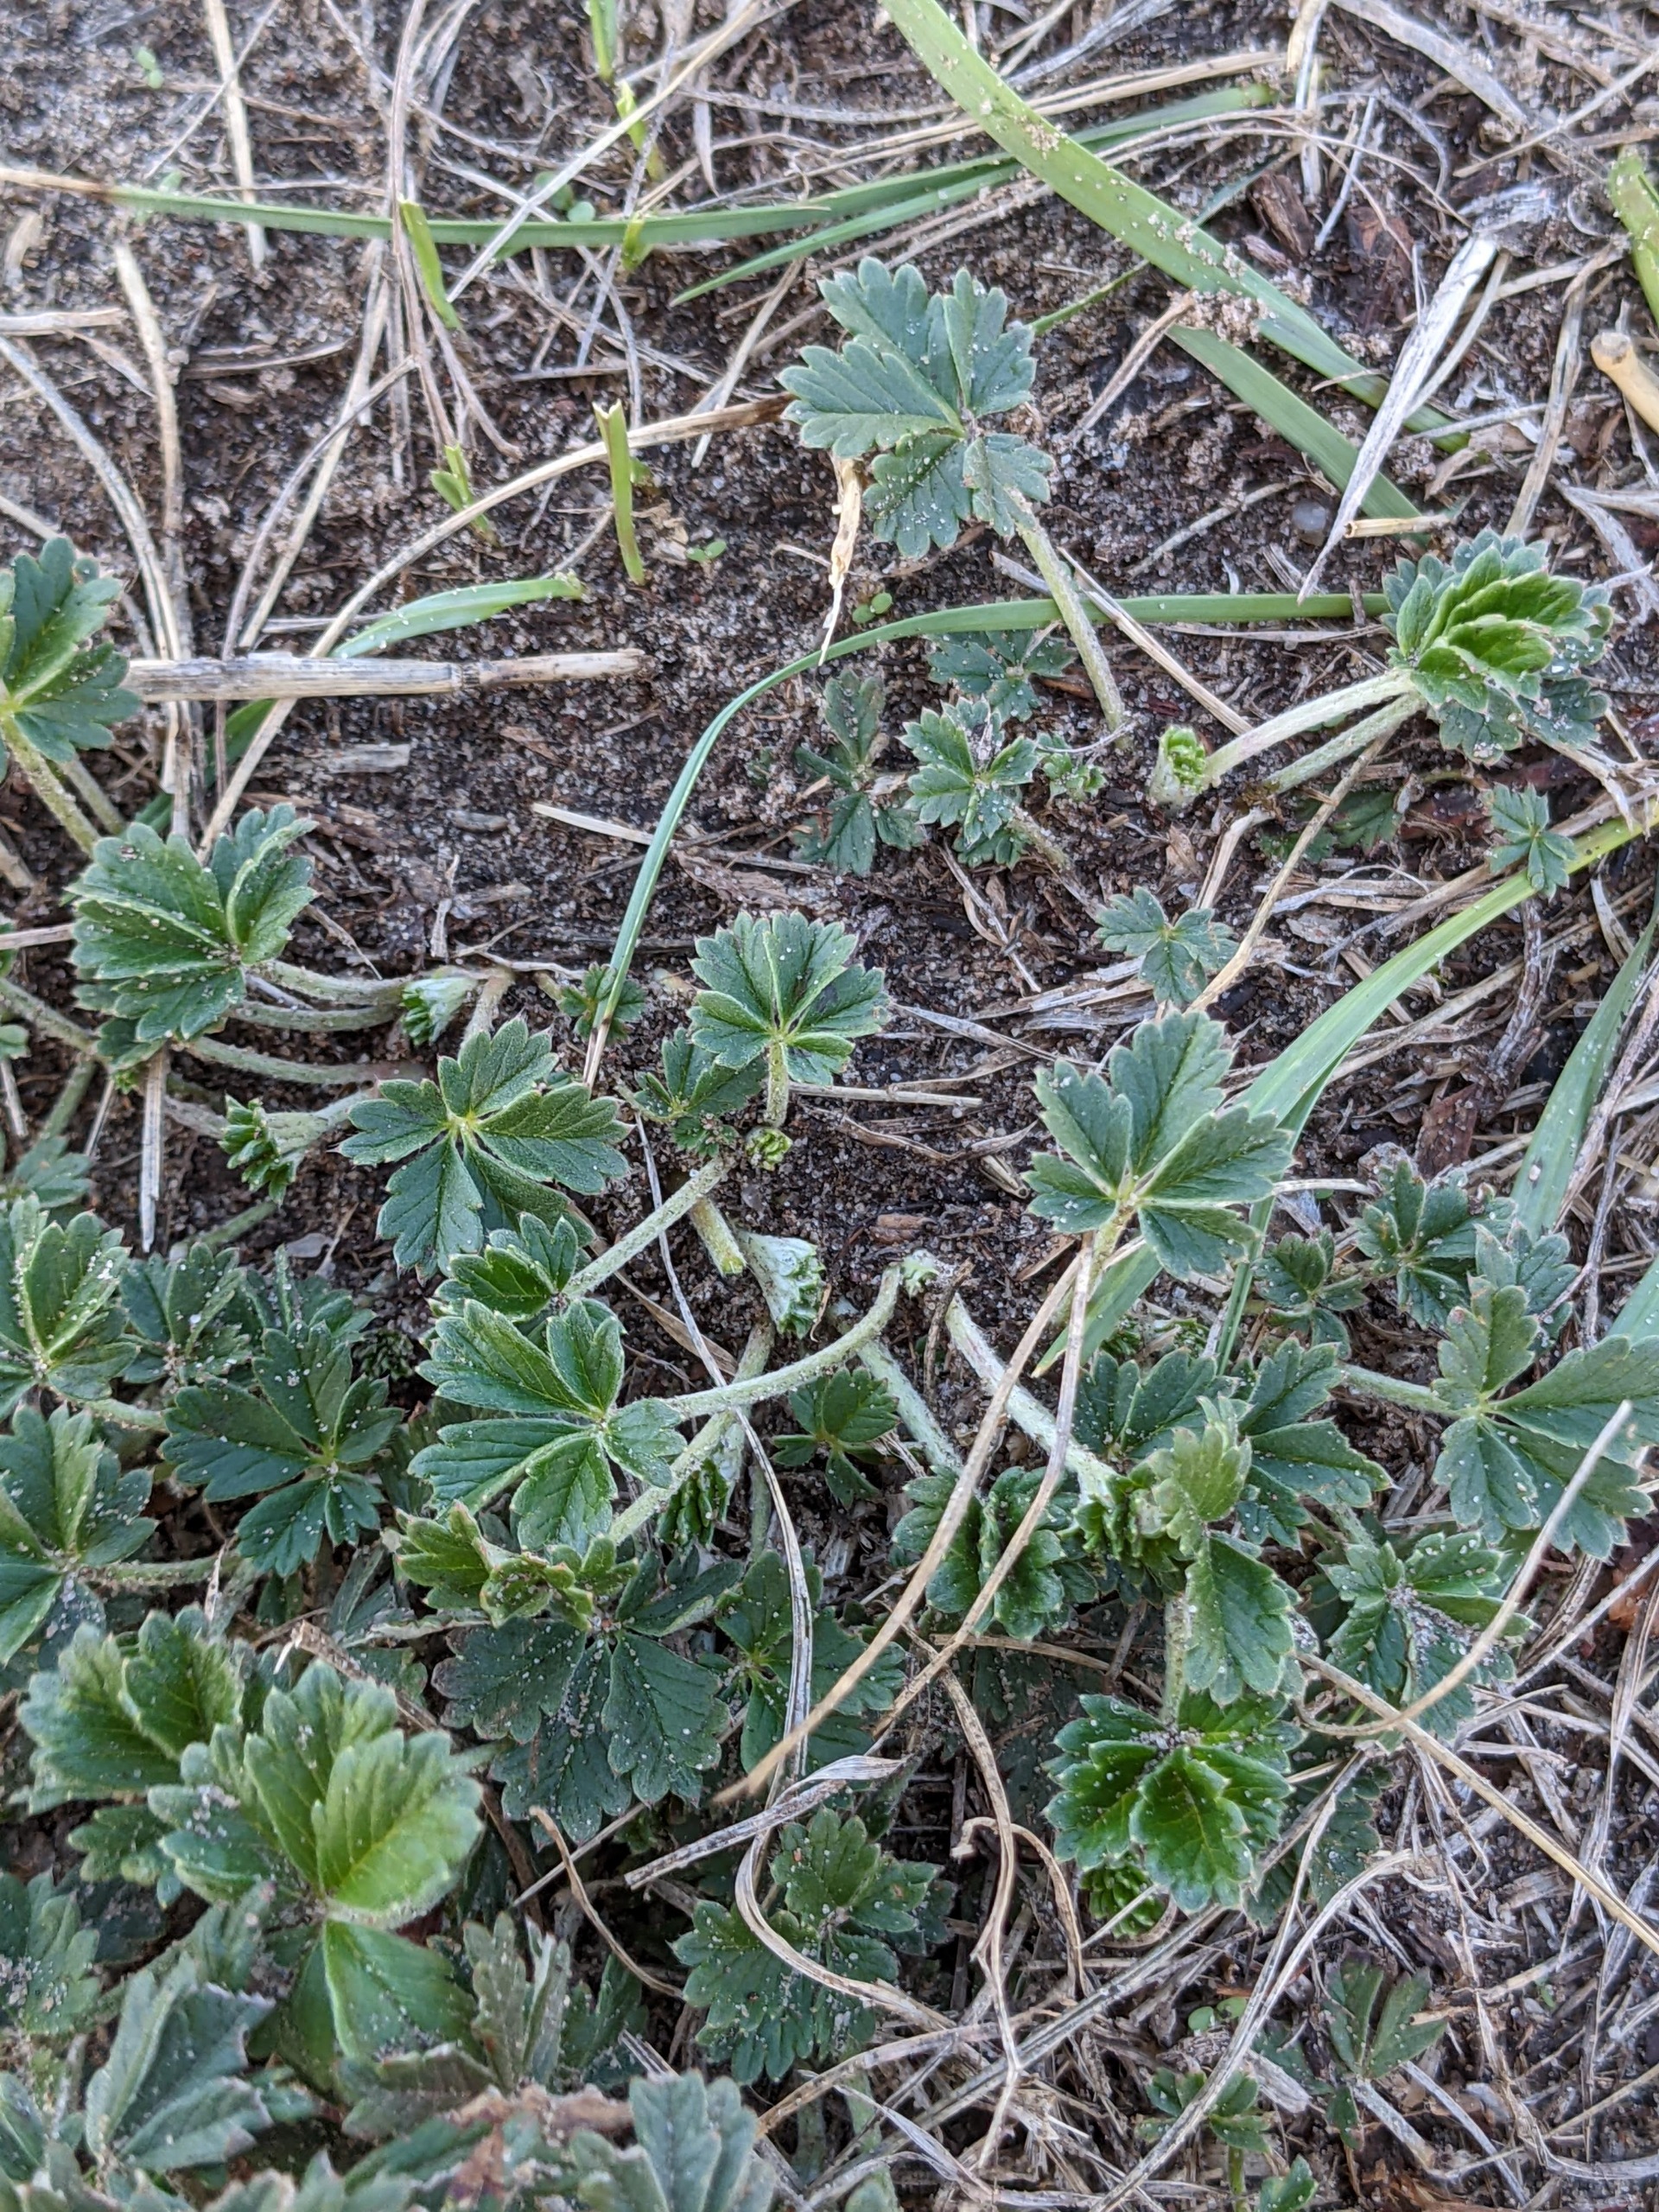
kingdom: Plantae
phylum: Tracheophyta
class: Magnoliopsida
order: Rosales
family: Rosaceae
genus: Potentilla
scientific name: Potentilla subarenaria
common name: Grå vår-potentil
